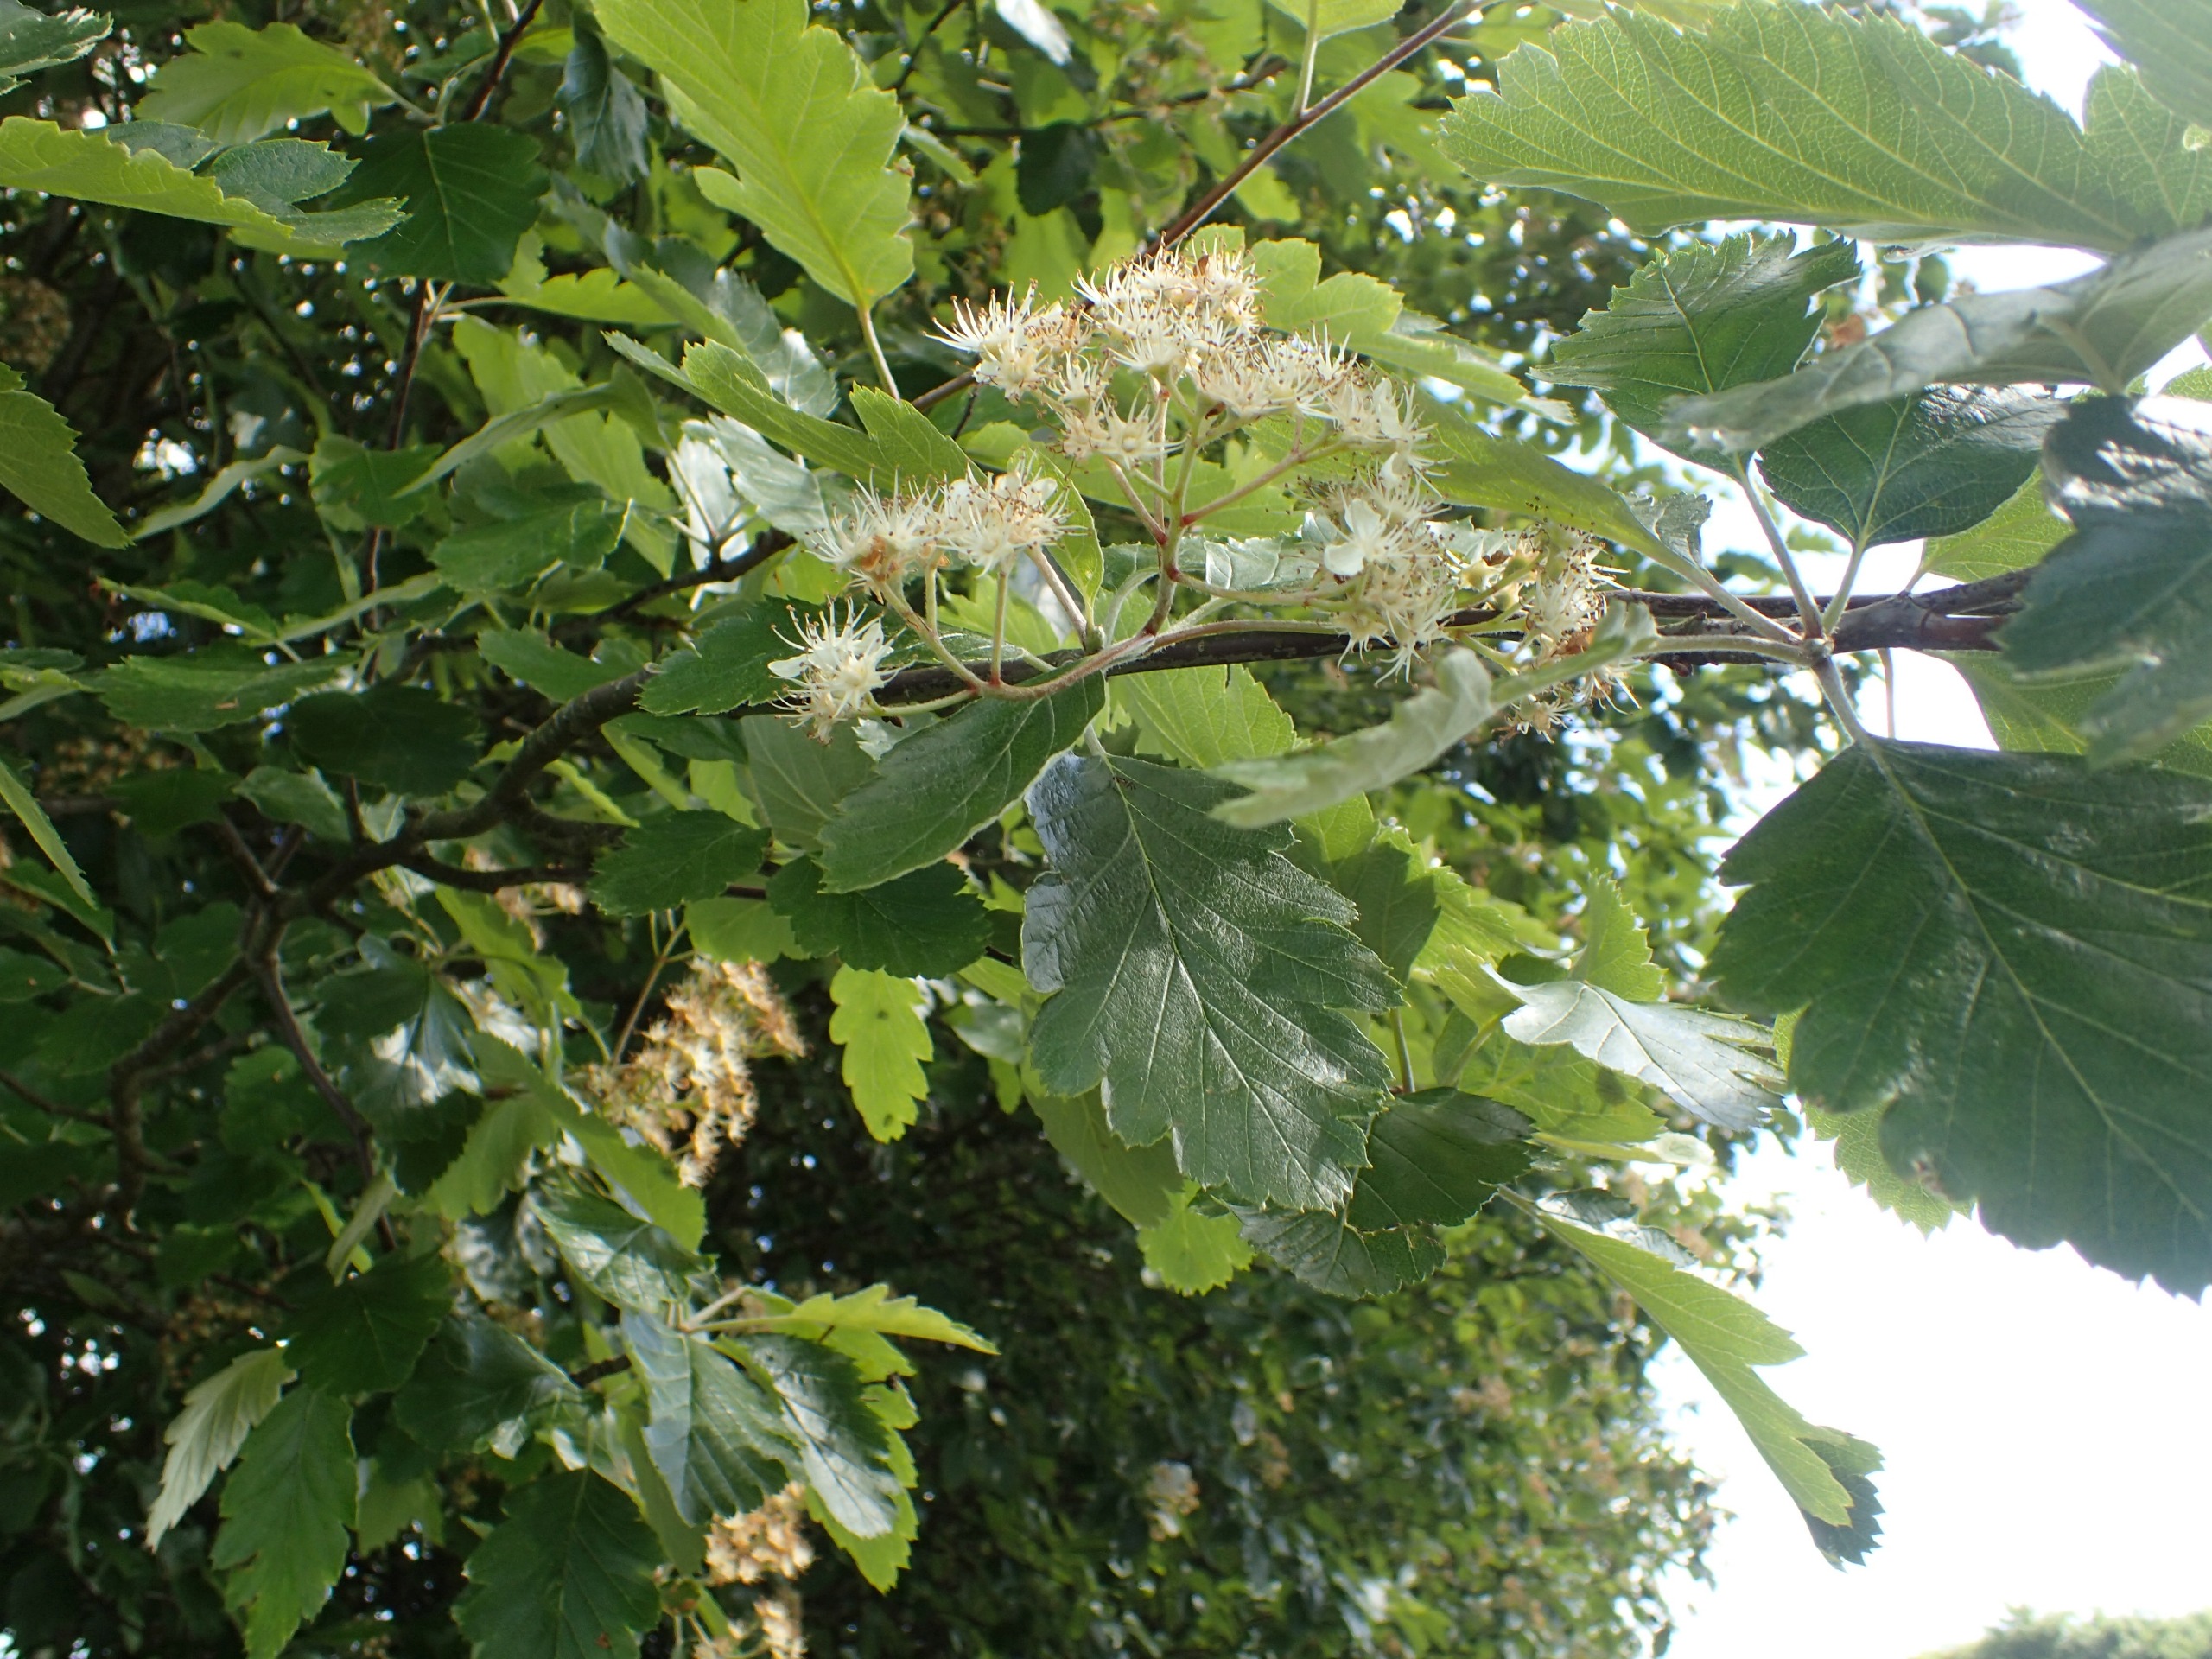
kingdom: Plantae
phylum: Tracheophyta
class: Magnoliopsida
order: Rosales
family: Rosaceae
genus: Scandosorbus
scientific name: Scandosorbus intermedia
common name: Selje-røn
